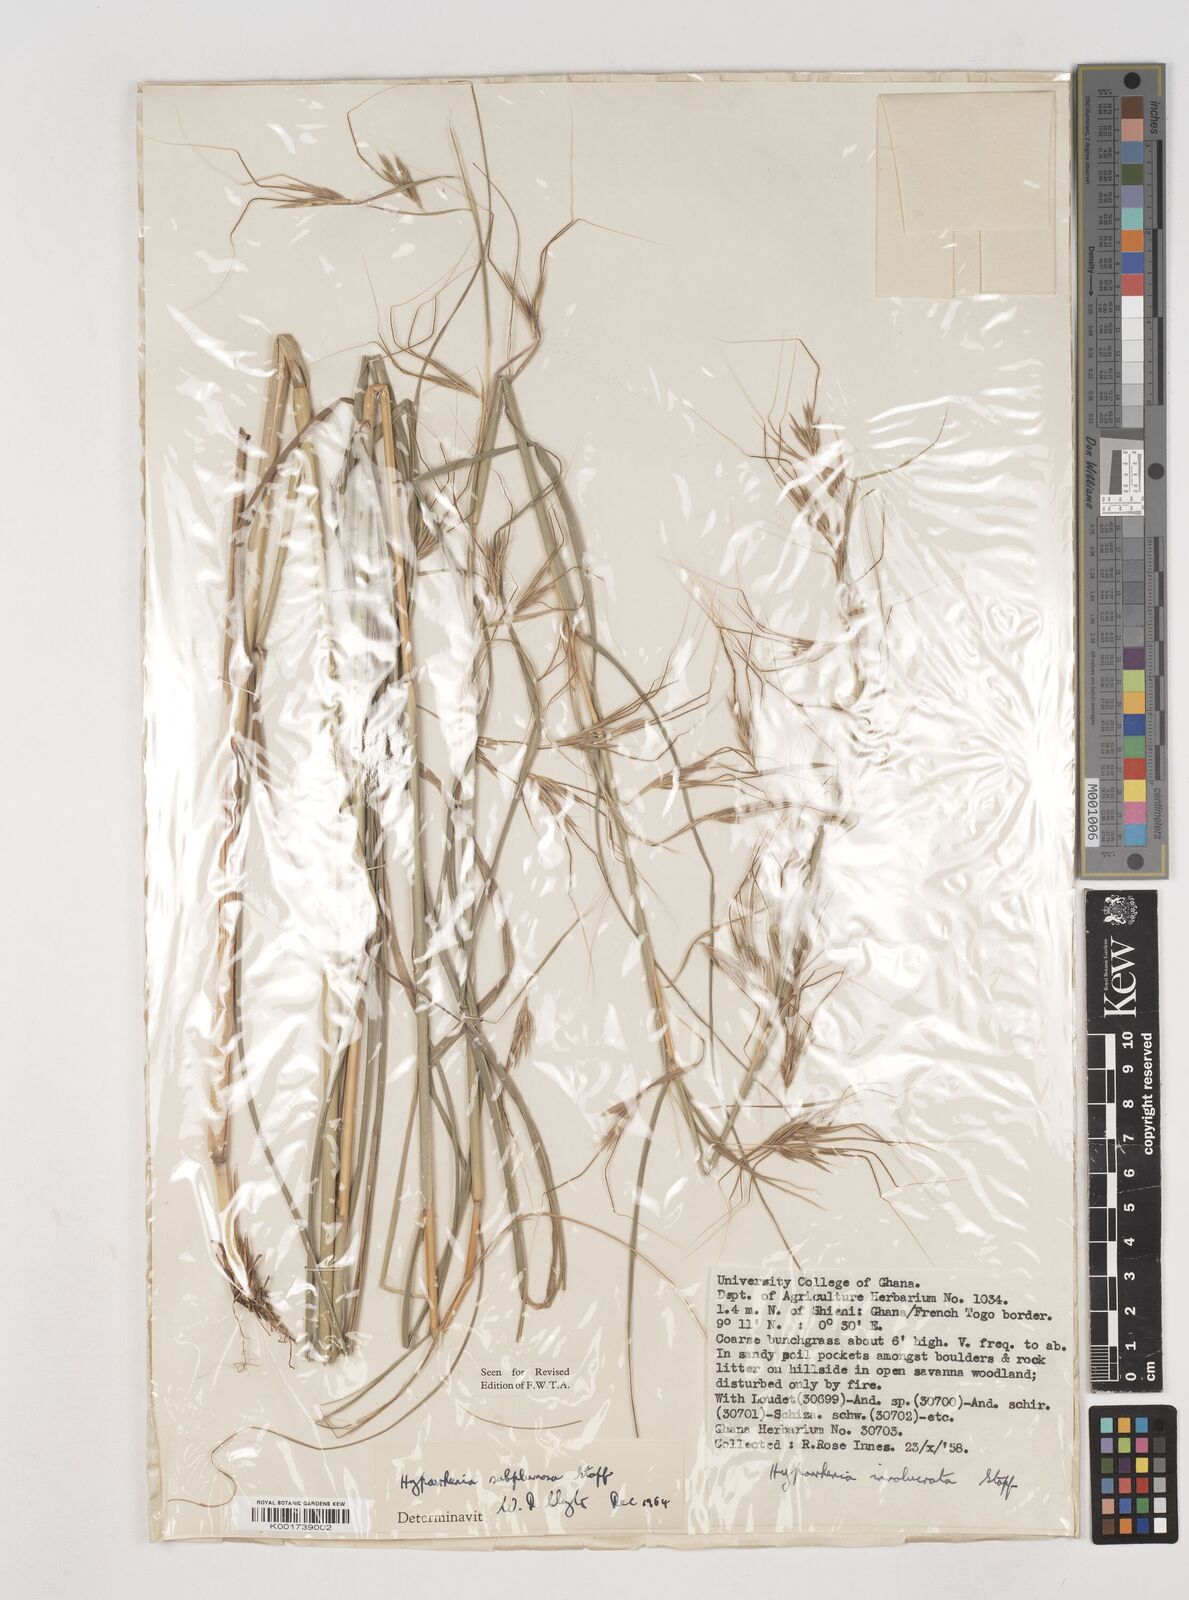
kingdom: Plantae
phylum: Tracheophyta
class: Liliopsida
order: Poales
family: Poaceae
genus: Hyparrhenia
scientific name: Hyparrhenia subplumosa
